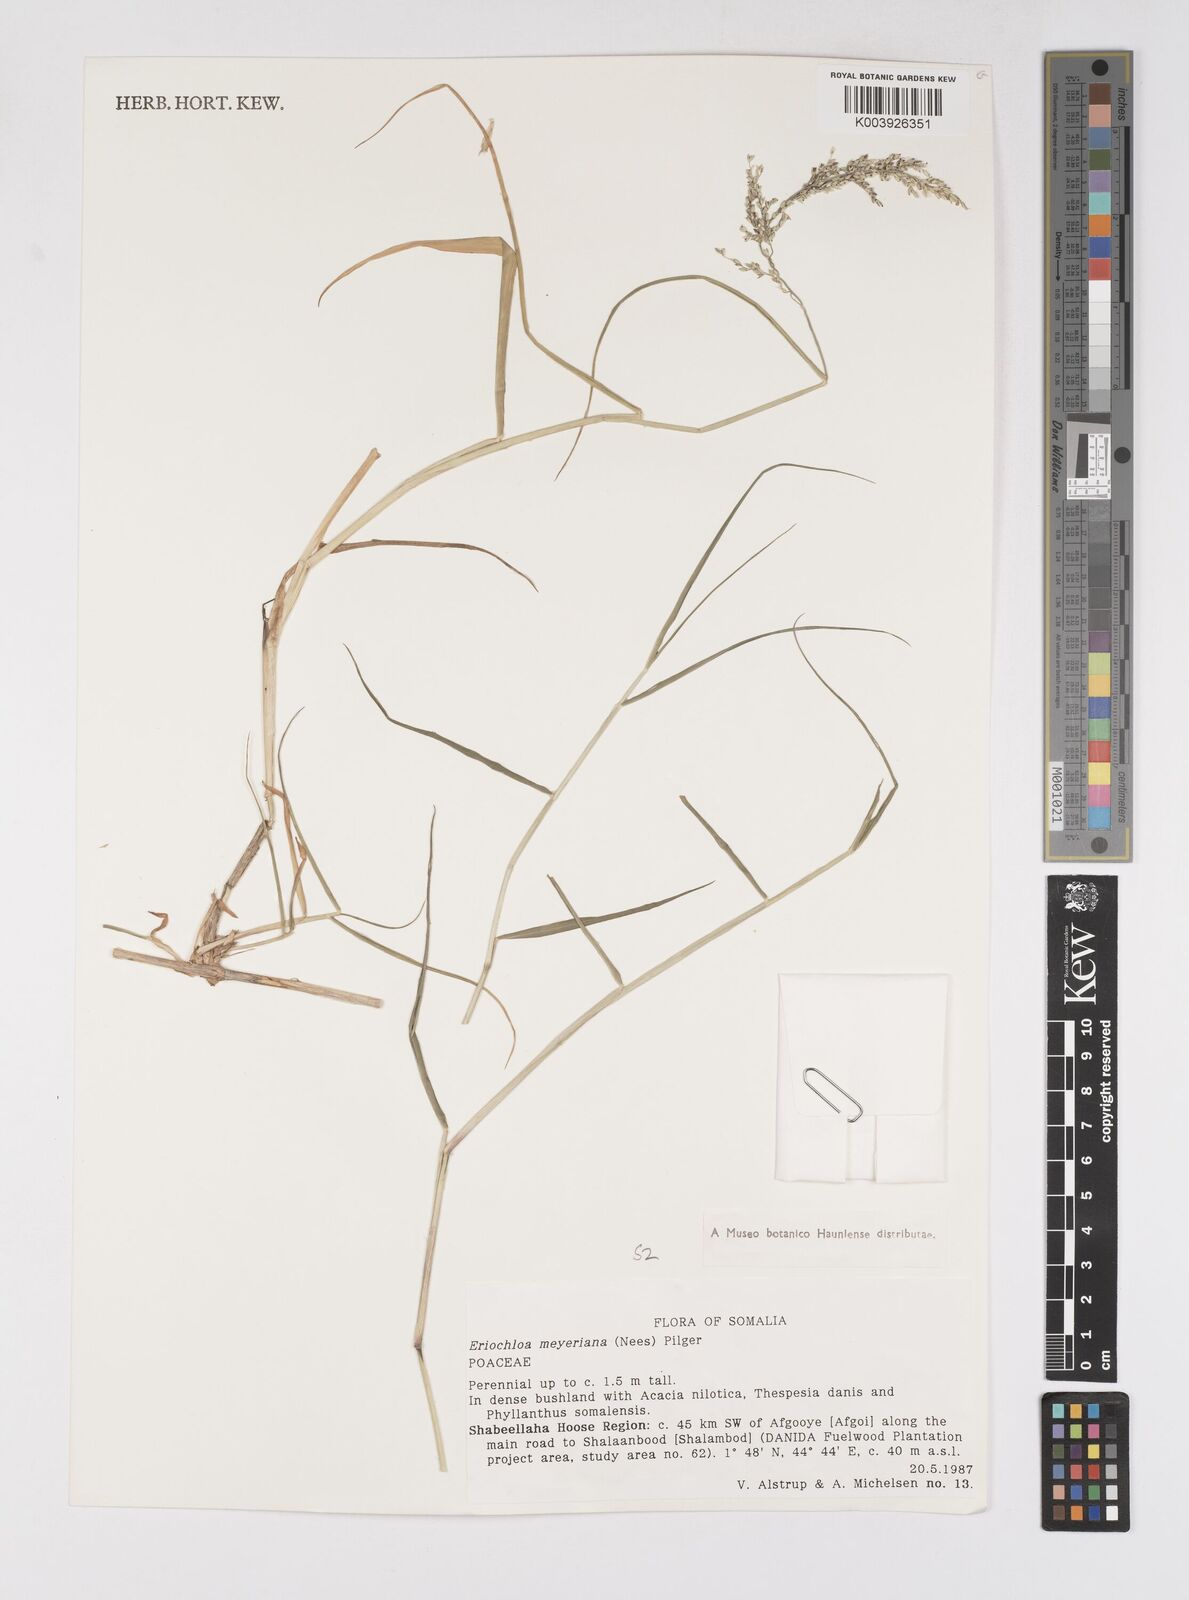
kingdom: Plantae
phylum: Tracheophyta
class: Liliopsida
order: Poales
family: Poaceae
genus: Eriochloa
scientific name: Eriochloa meyeriana
